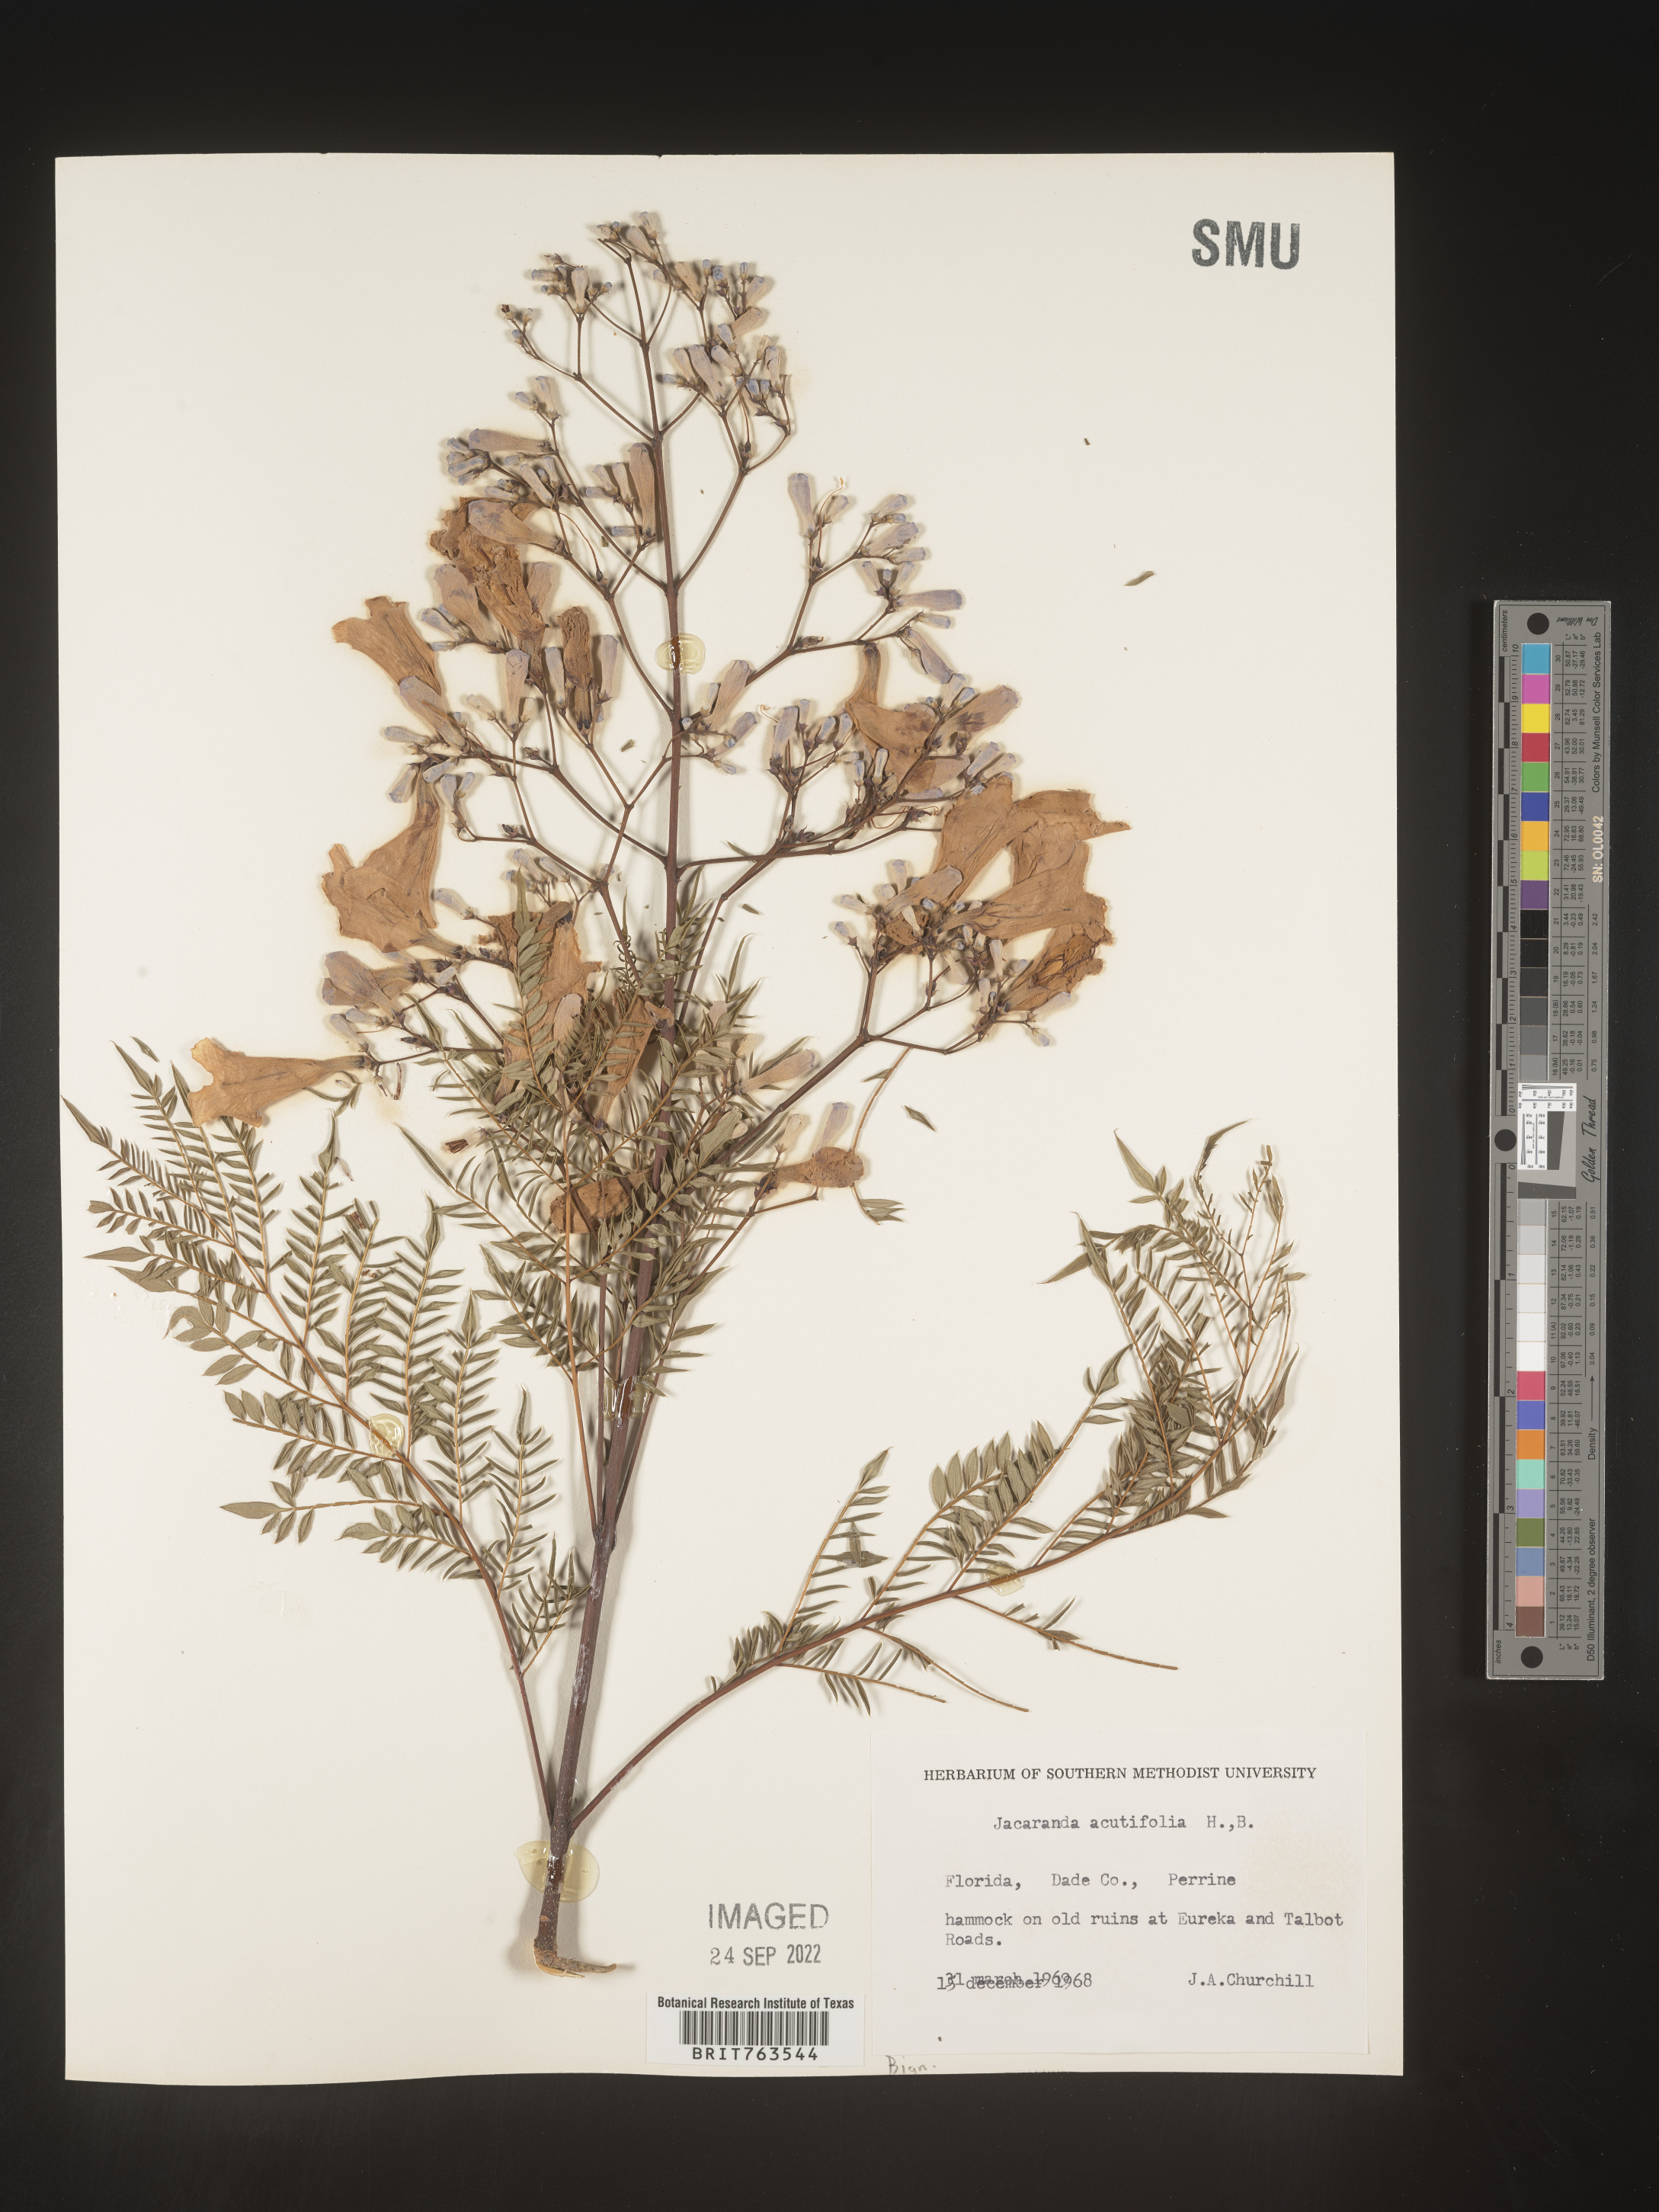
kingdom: Plantae
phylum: Tracheophyta
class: Magnoliopsida
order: Lamiales
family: Bignoniaceae
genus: Jacaranda
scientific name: Jacaranda
